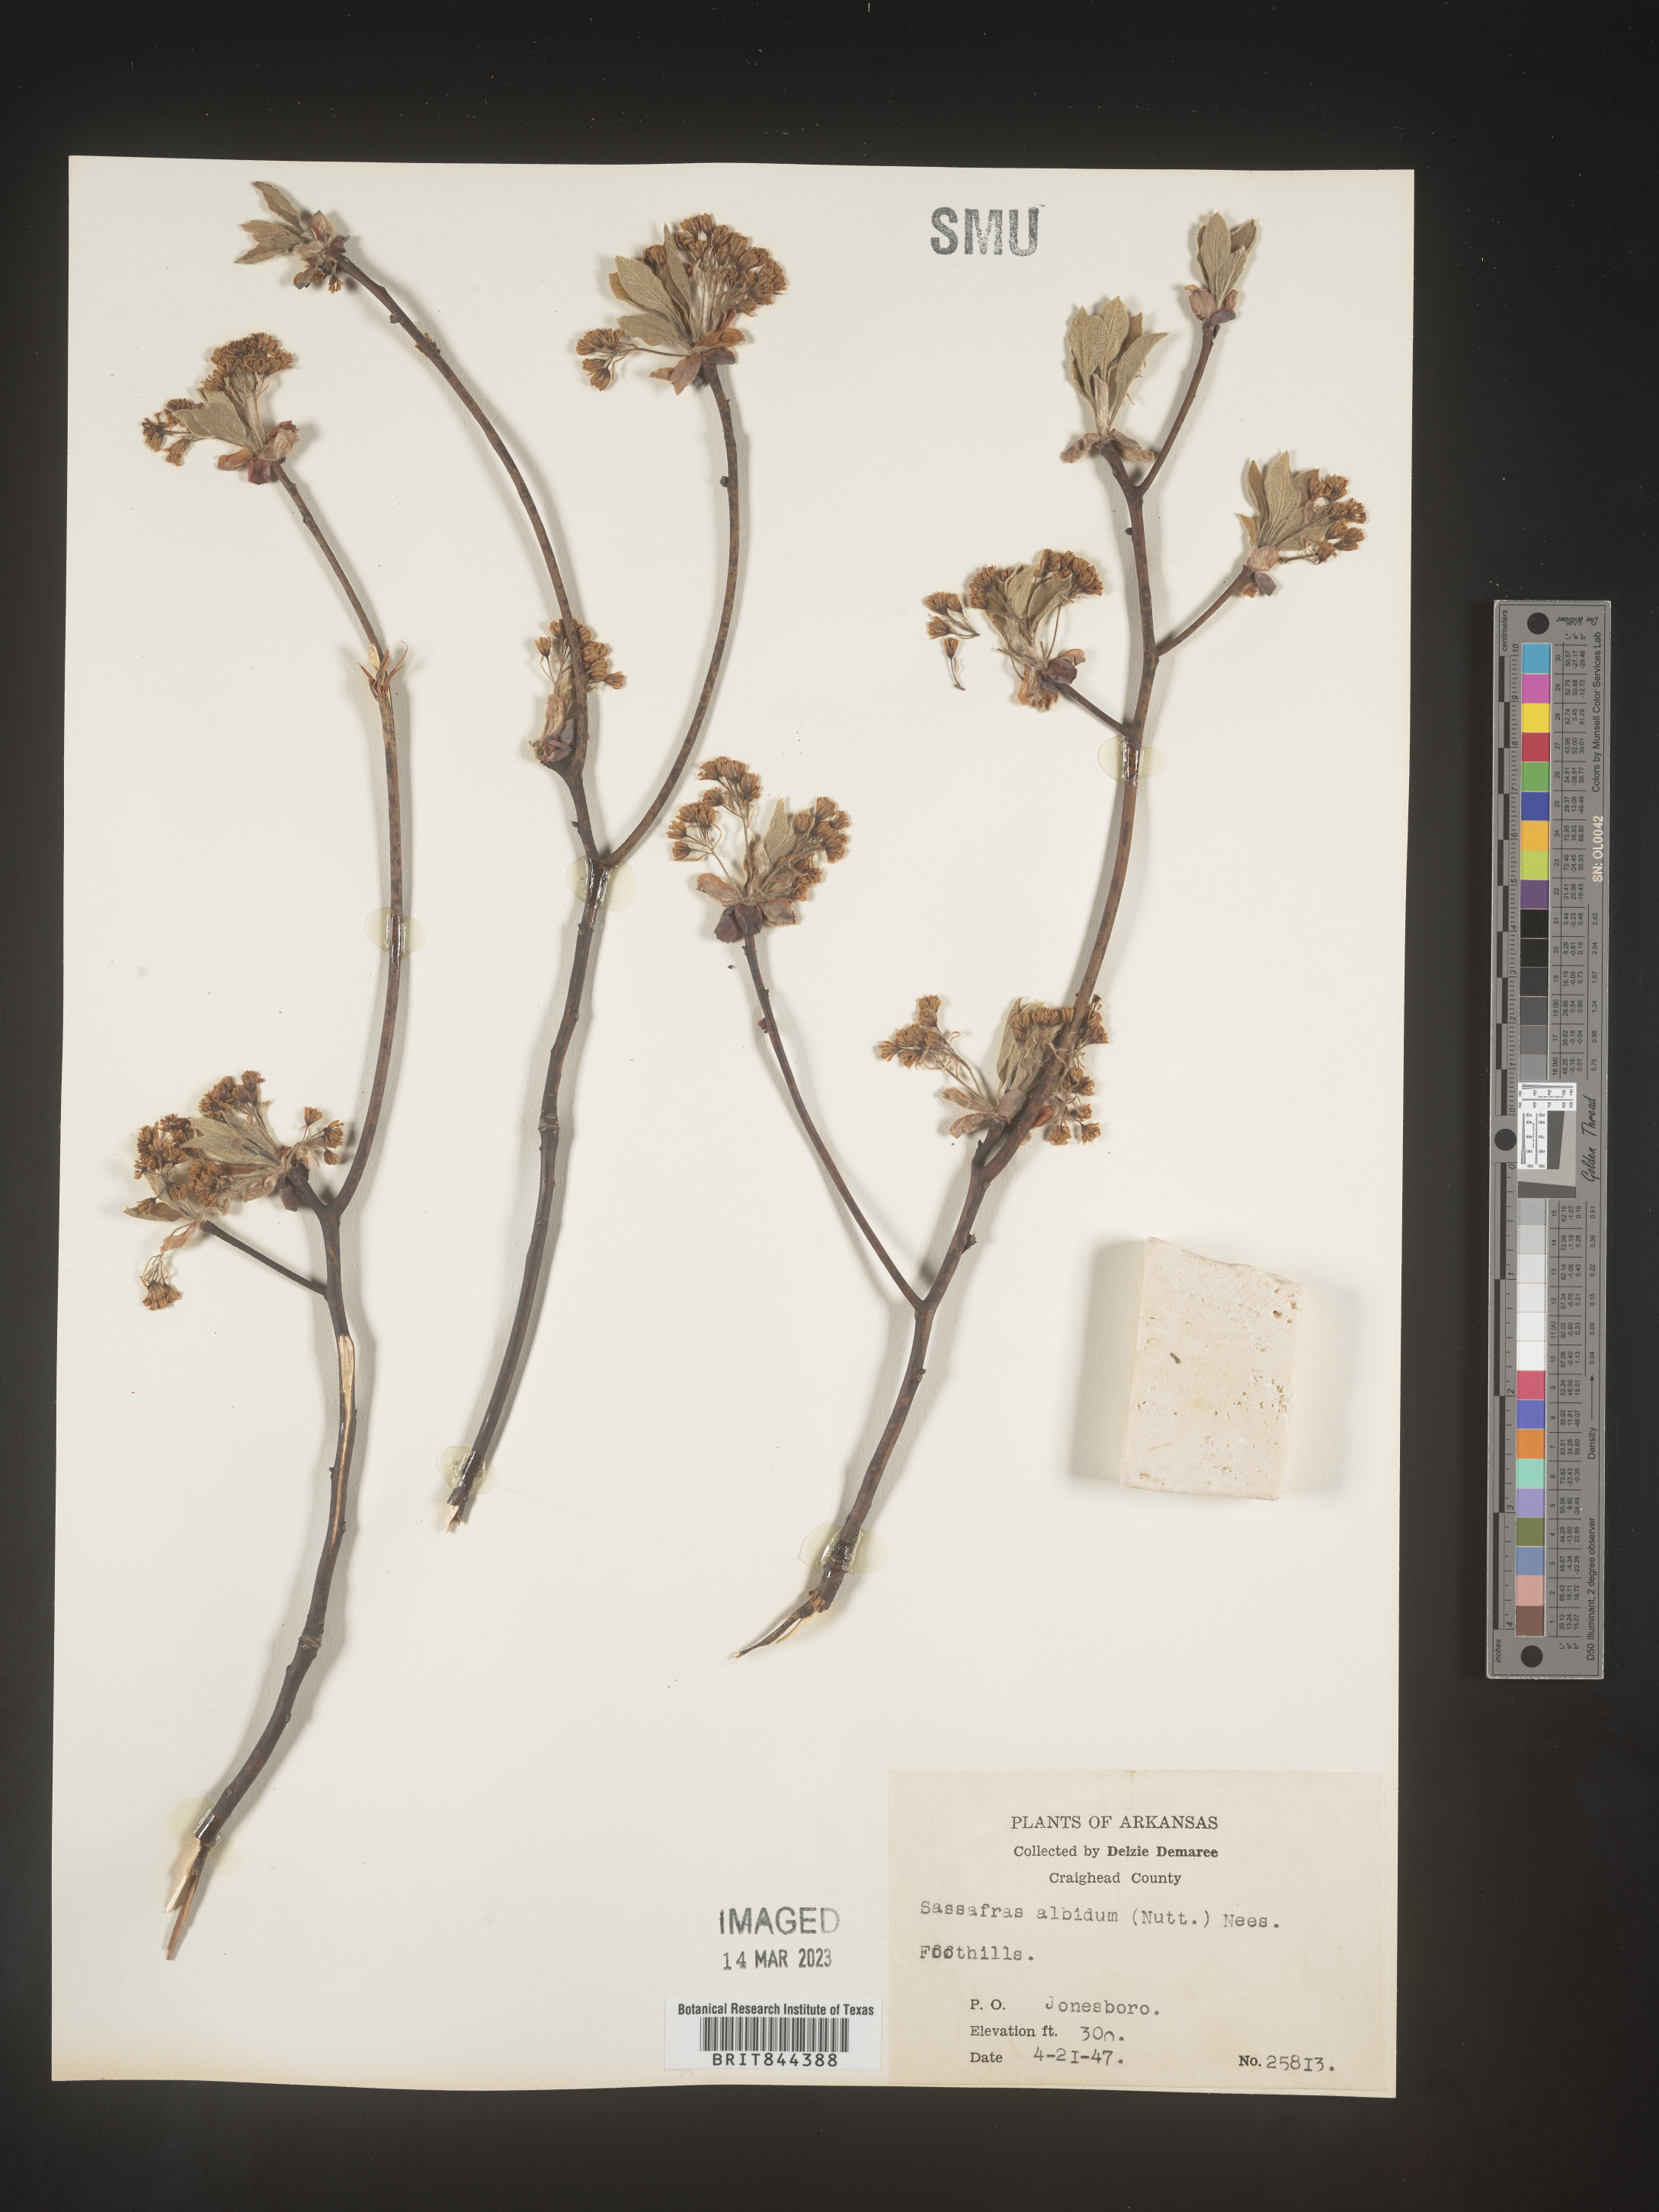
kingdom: Plantae
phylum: Tracheophyta
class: Magnoliopsida
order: Laurales
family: Lauraceae
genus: Sassafras
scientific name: Sassafras
